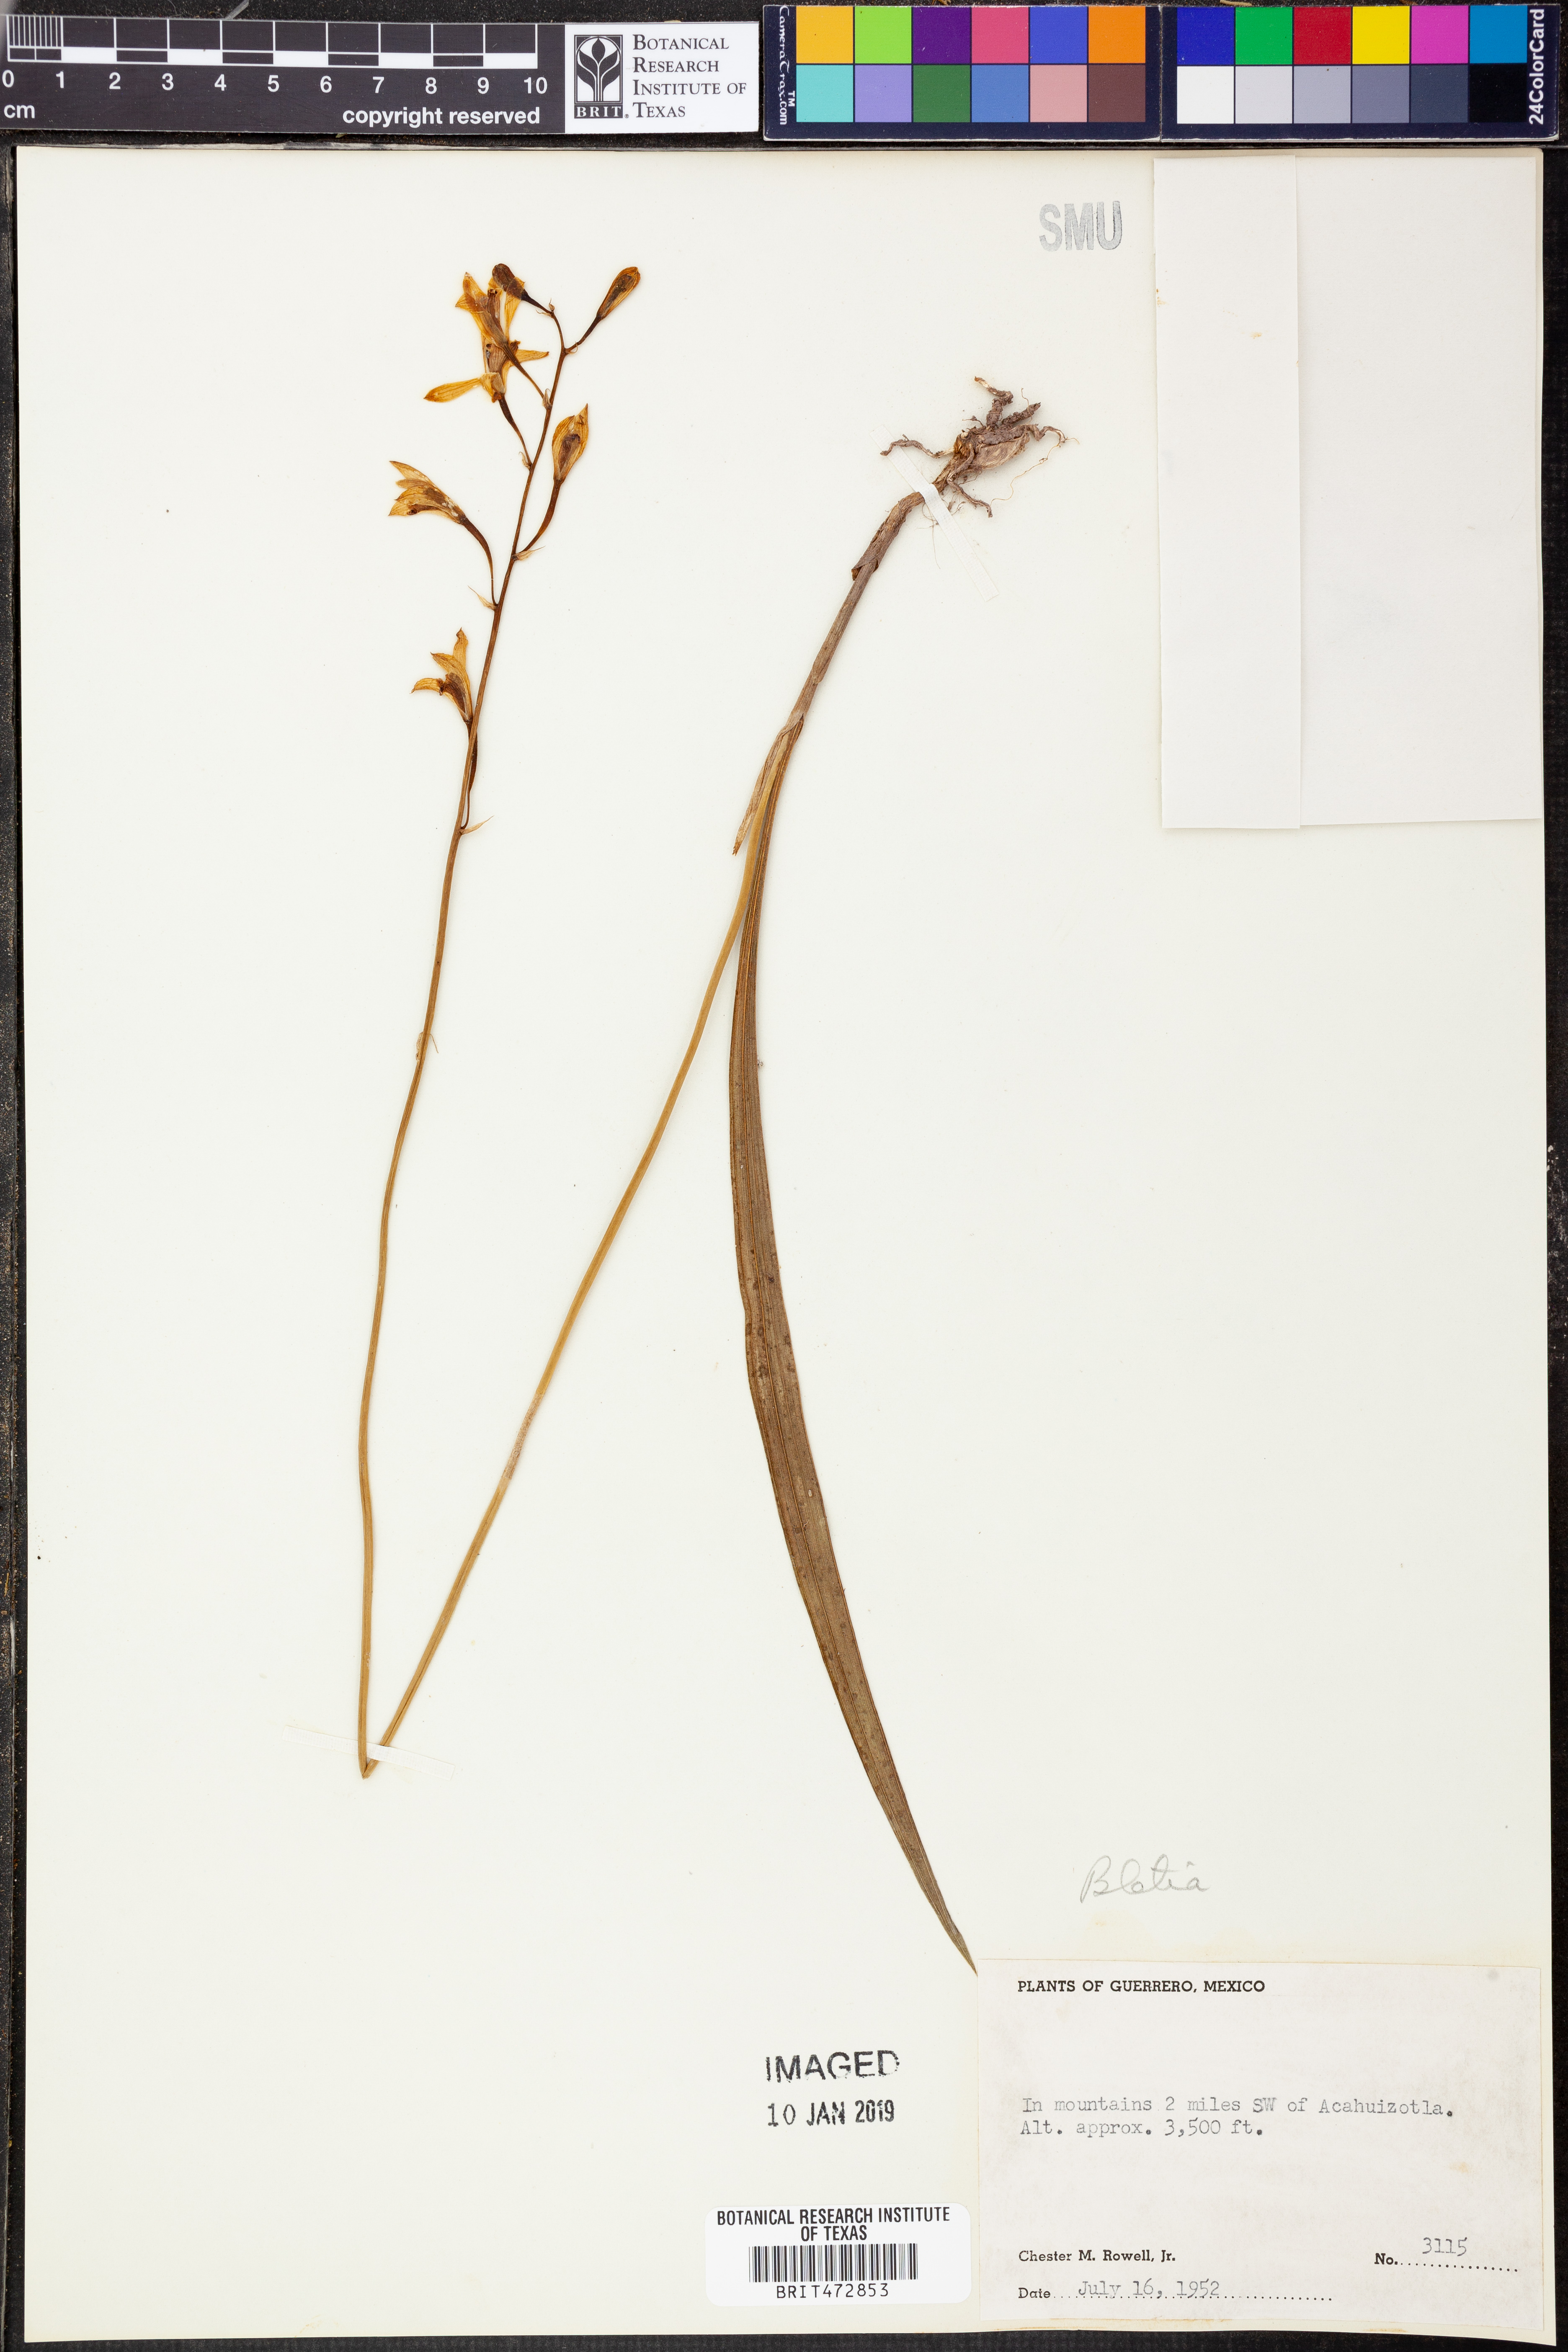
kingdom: Plantae
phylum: Tracheophyta
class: Liliopsida
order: Asparagales
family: Orchidaceae
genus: Bletia
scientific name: Bletia
